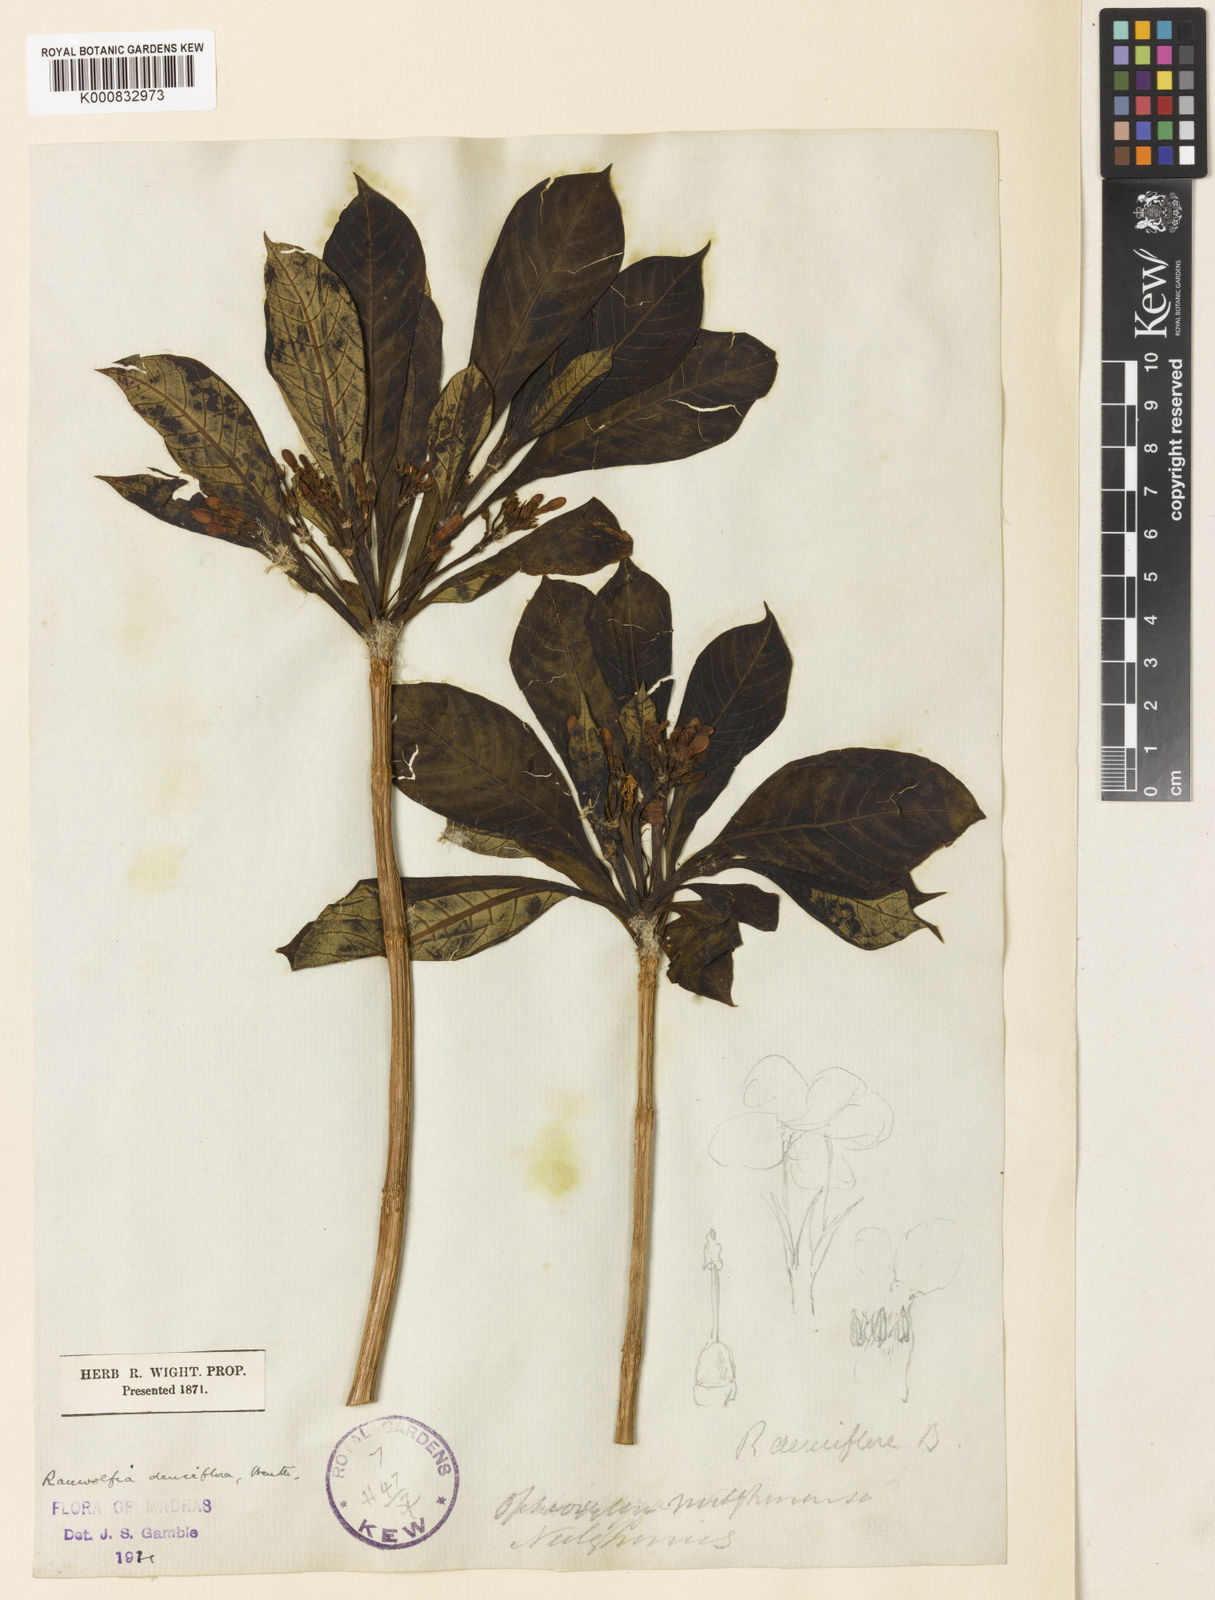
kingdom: Plantae
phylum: Tracheophyta
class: Magnoliopsida
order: Gentianales
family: Apocynaceae
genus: Rauvolfia
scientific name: Rauvolfia verticillata
